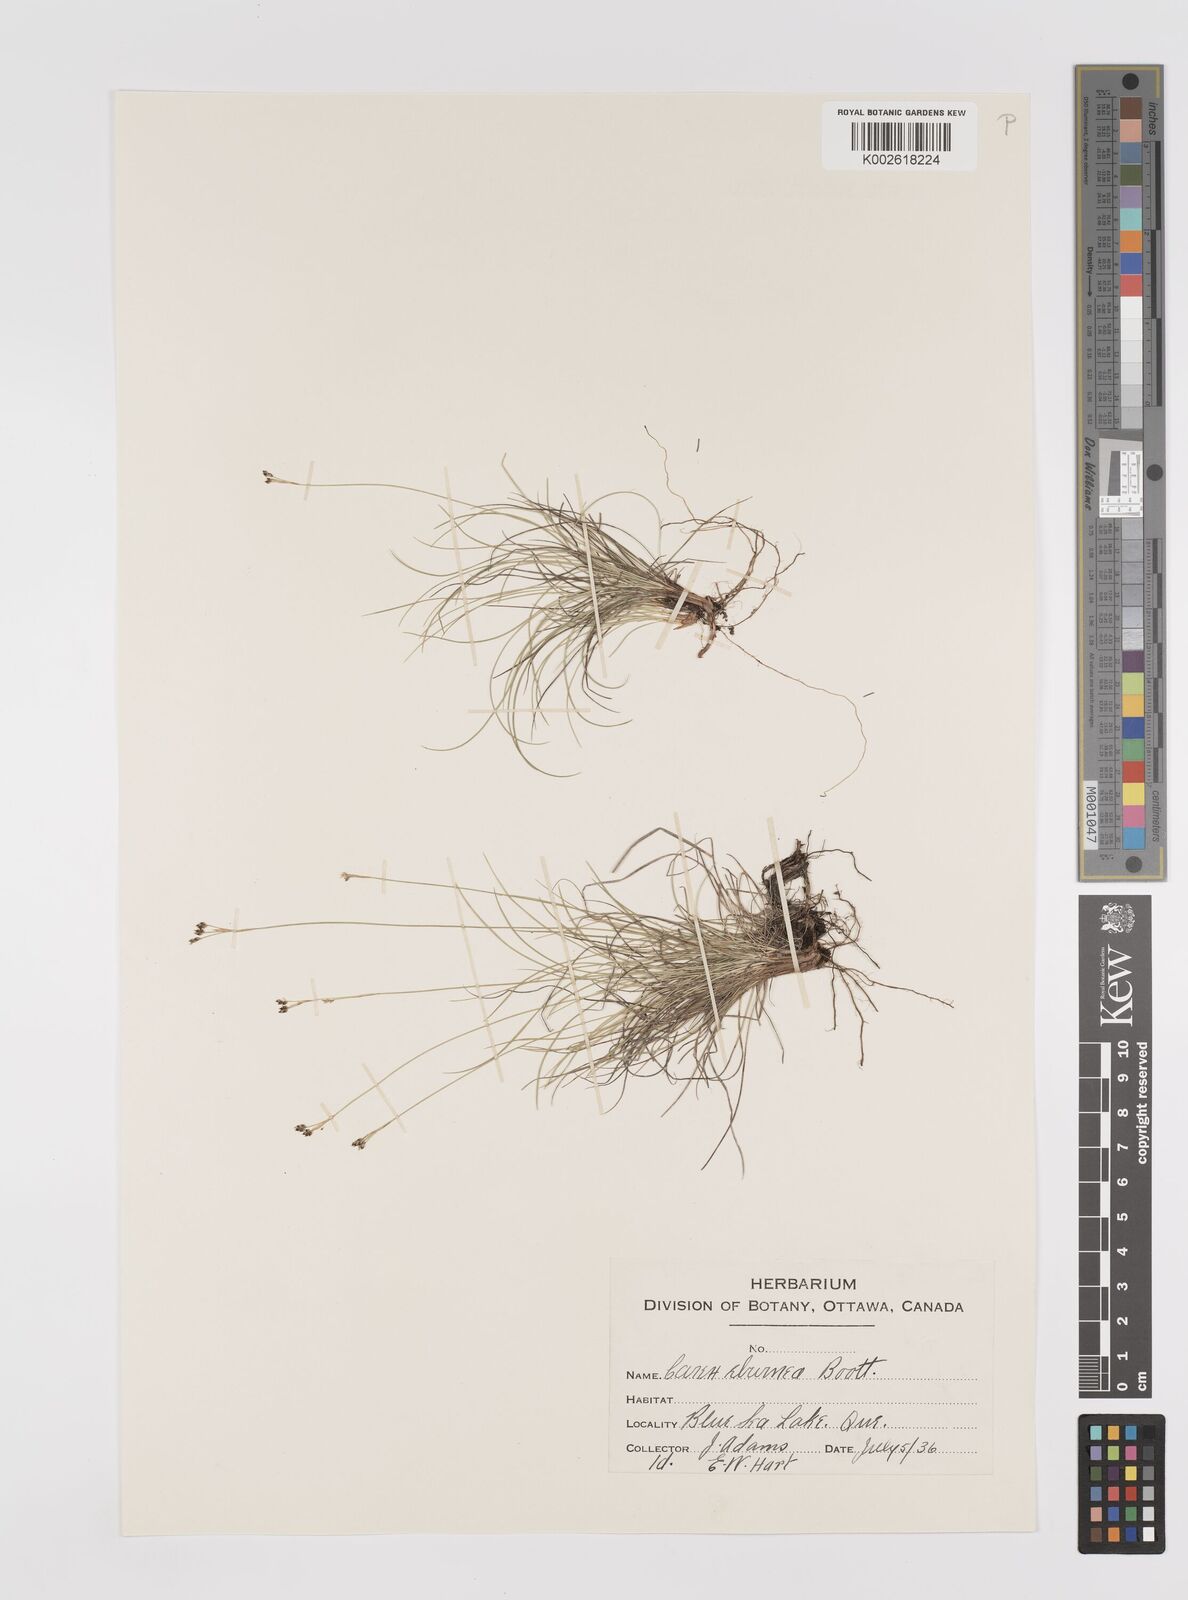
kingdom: Plantae
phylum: Tracheophyta
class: Liliopsida
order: Poales
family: Cyperaceae
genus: Carex
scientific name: Carex eburnea
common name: Bristle-leaved sedge
